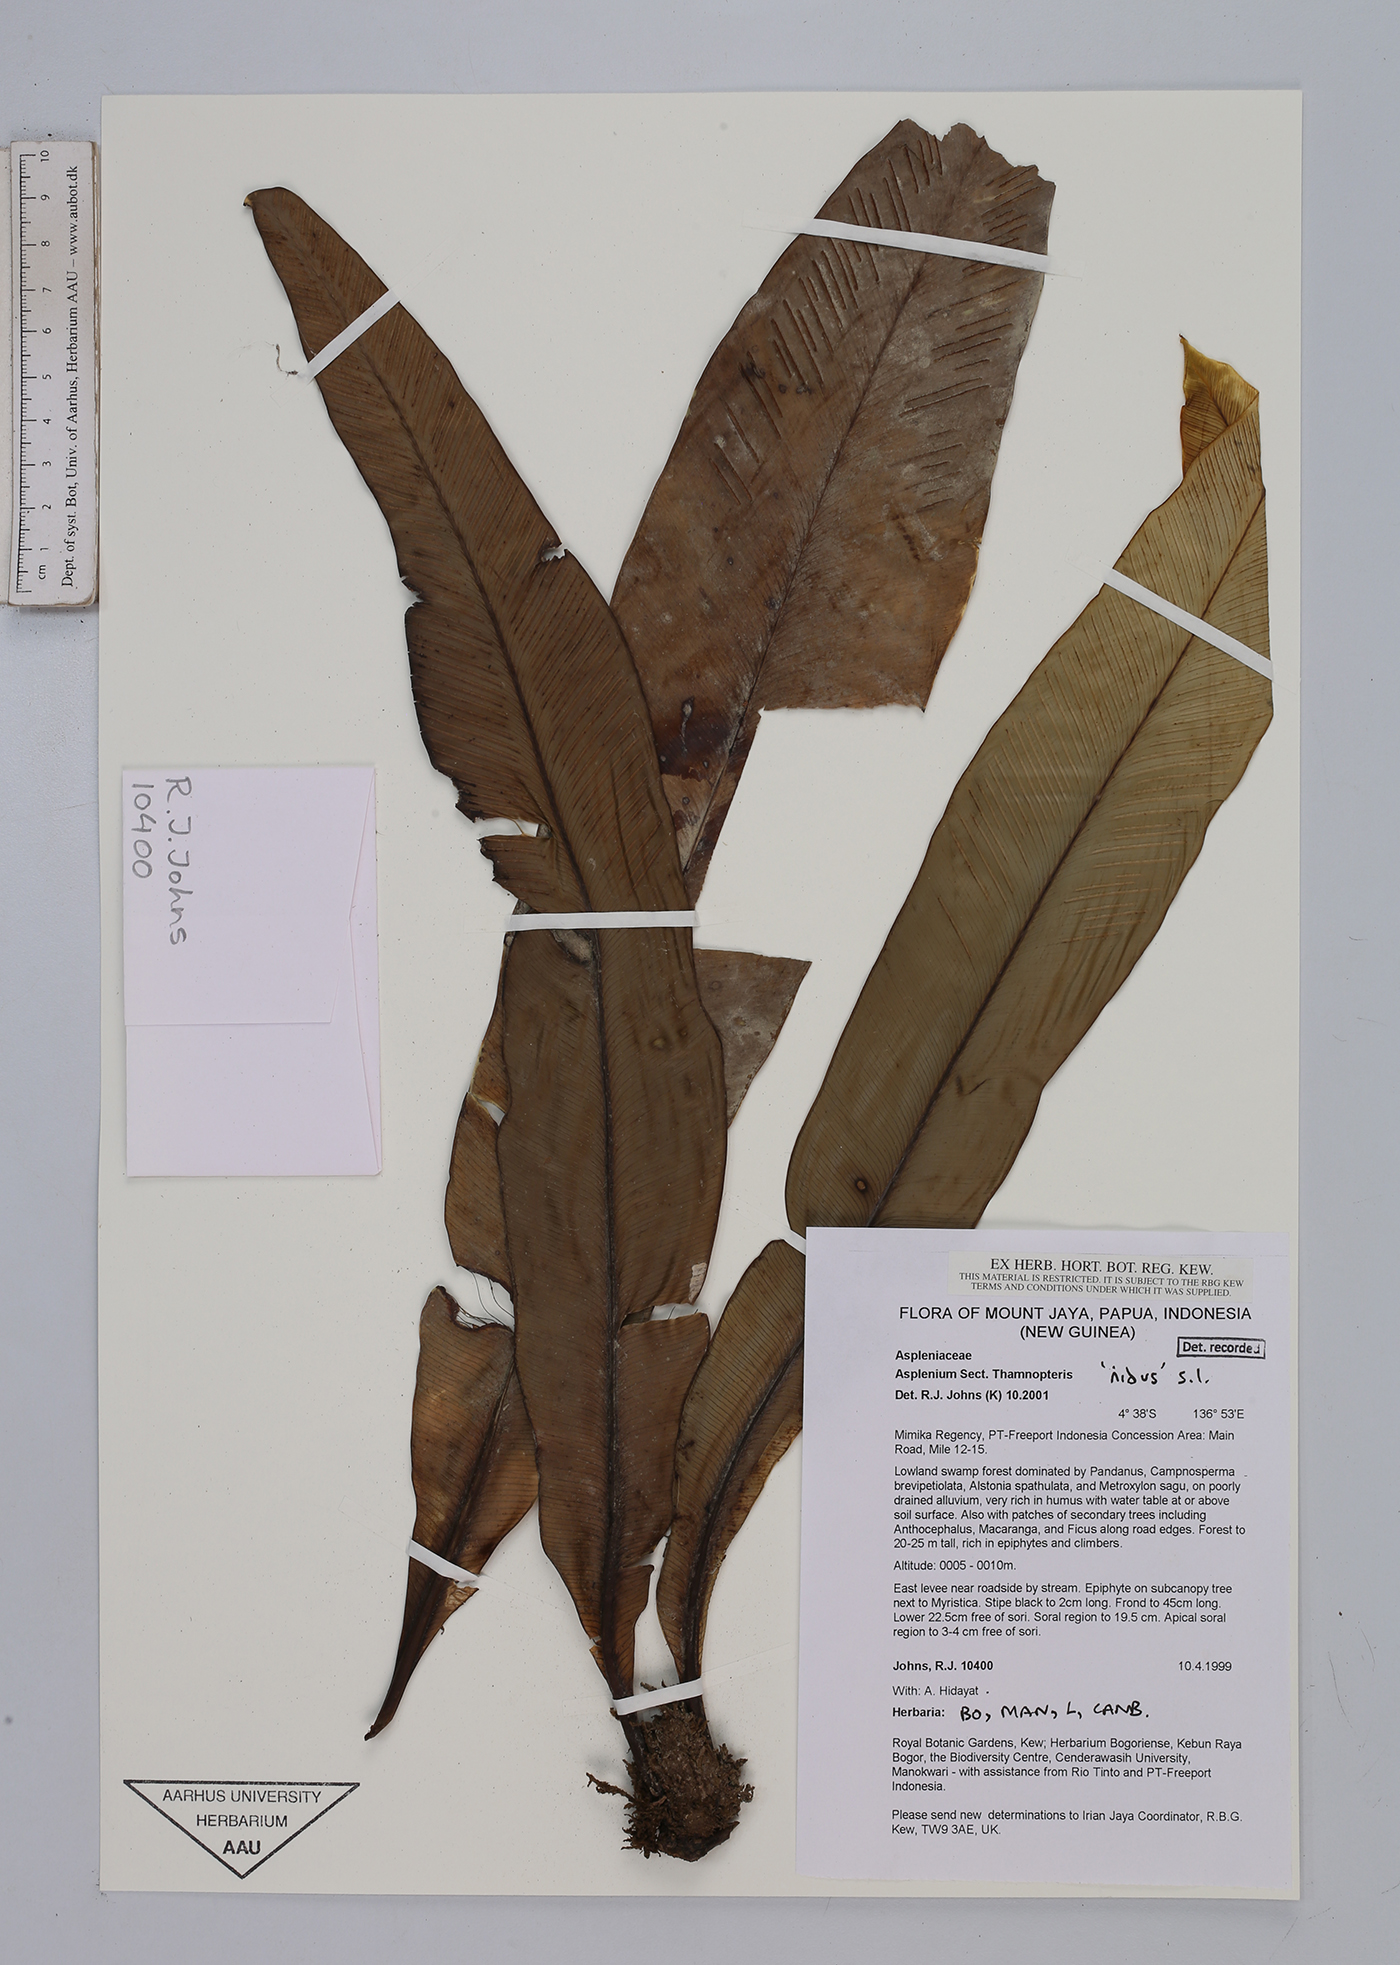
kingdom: Plantae
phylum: Tracheophyta
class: Polypodiopsida
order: Polypodiales
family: Aspleniaceae
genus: Asplenium
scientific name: Asplenium
